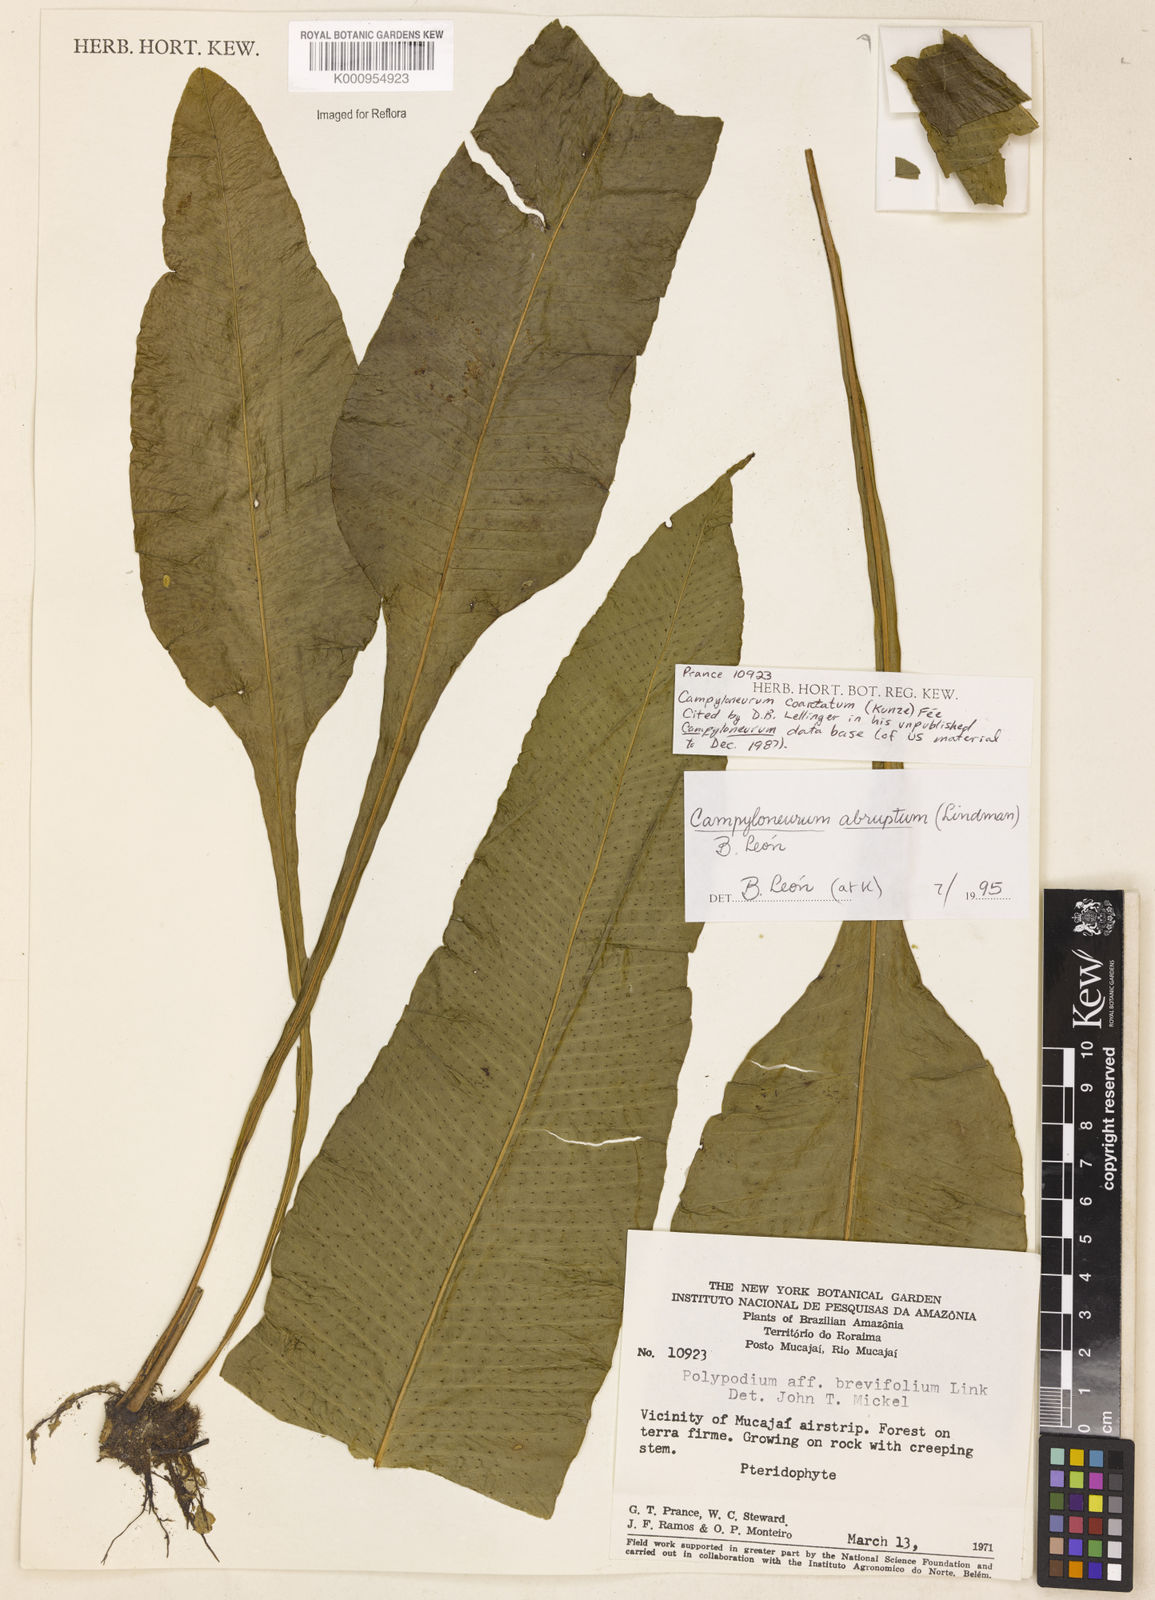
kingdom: Plantae
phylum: Tracheophyta
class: Polypodiopsida
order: Polypodiales
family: Polypodiaceae
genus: Campyloneurum
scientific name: Campyloneurum
